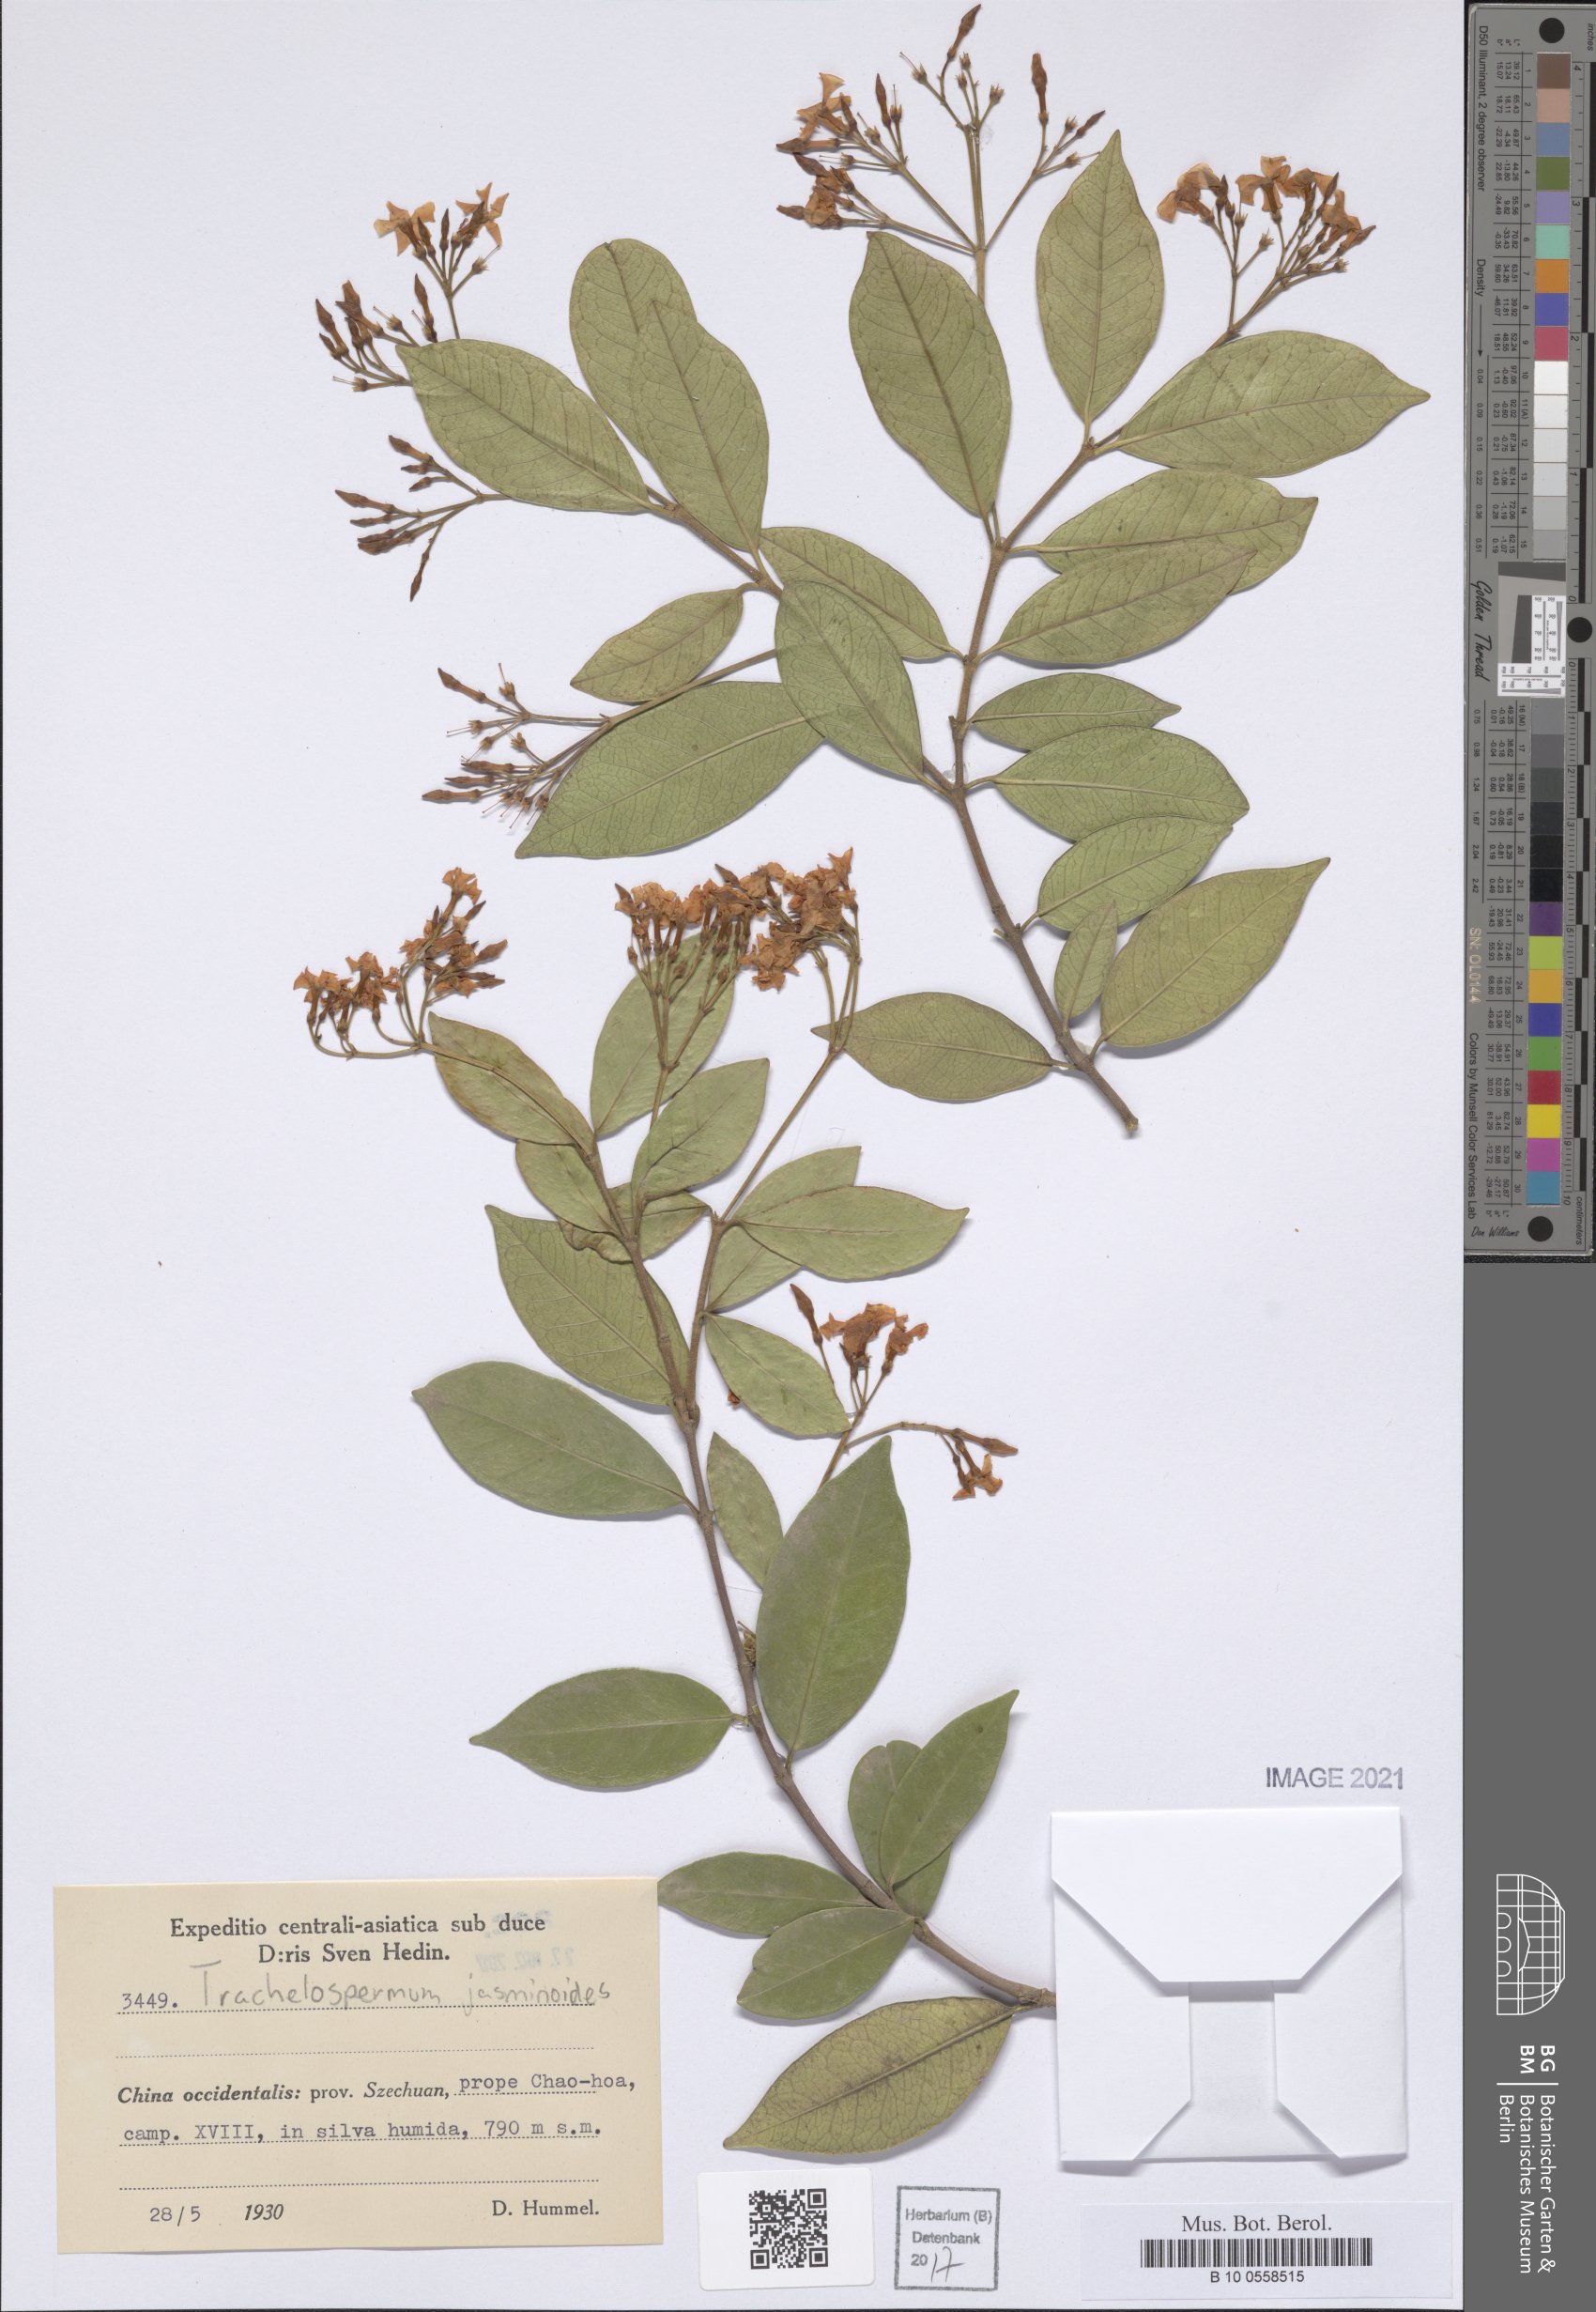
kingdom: Plantae
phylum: Tracheophyta
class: Magnoliopsida
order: Gentianales
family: Apocynaceae
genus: Trachelospermum
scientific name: Trachelospermum jasminoides
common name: Confederate jasmine
